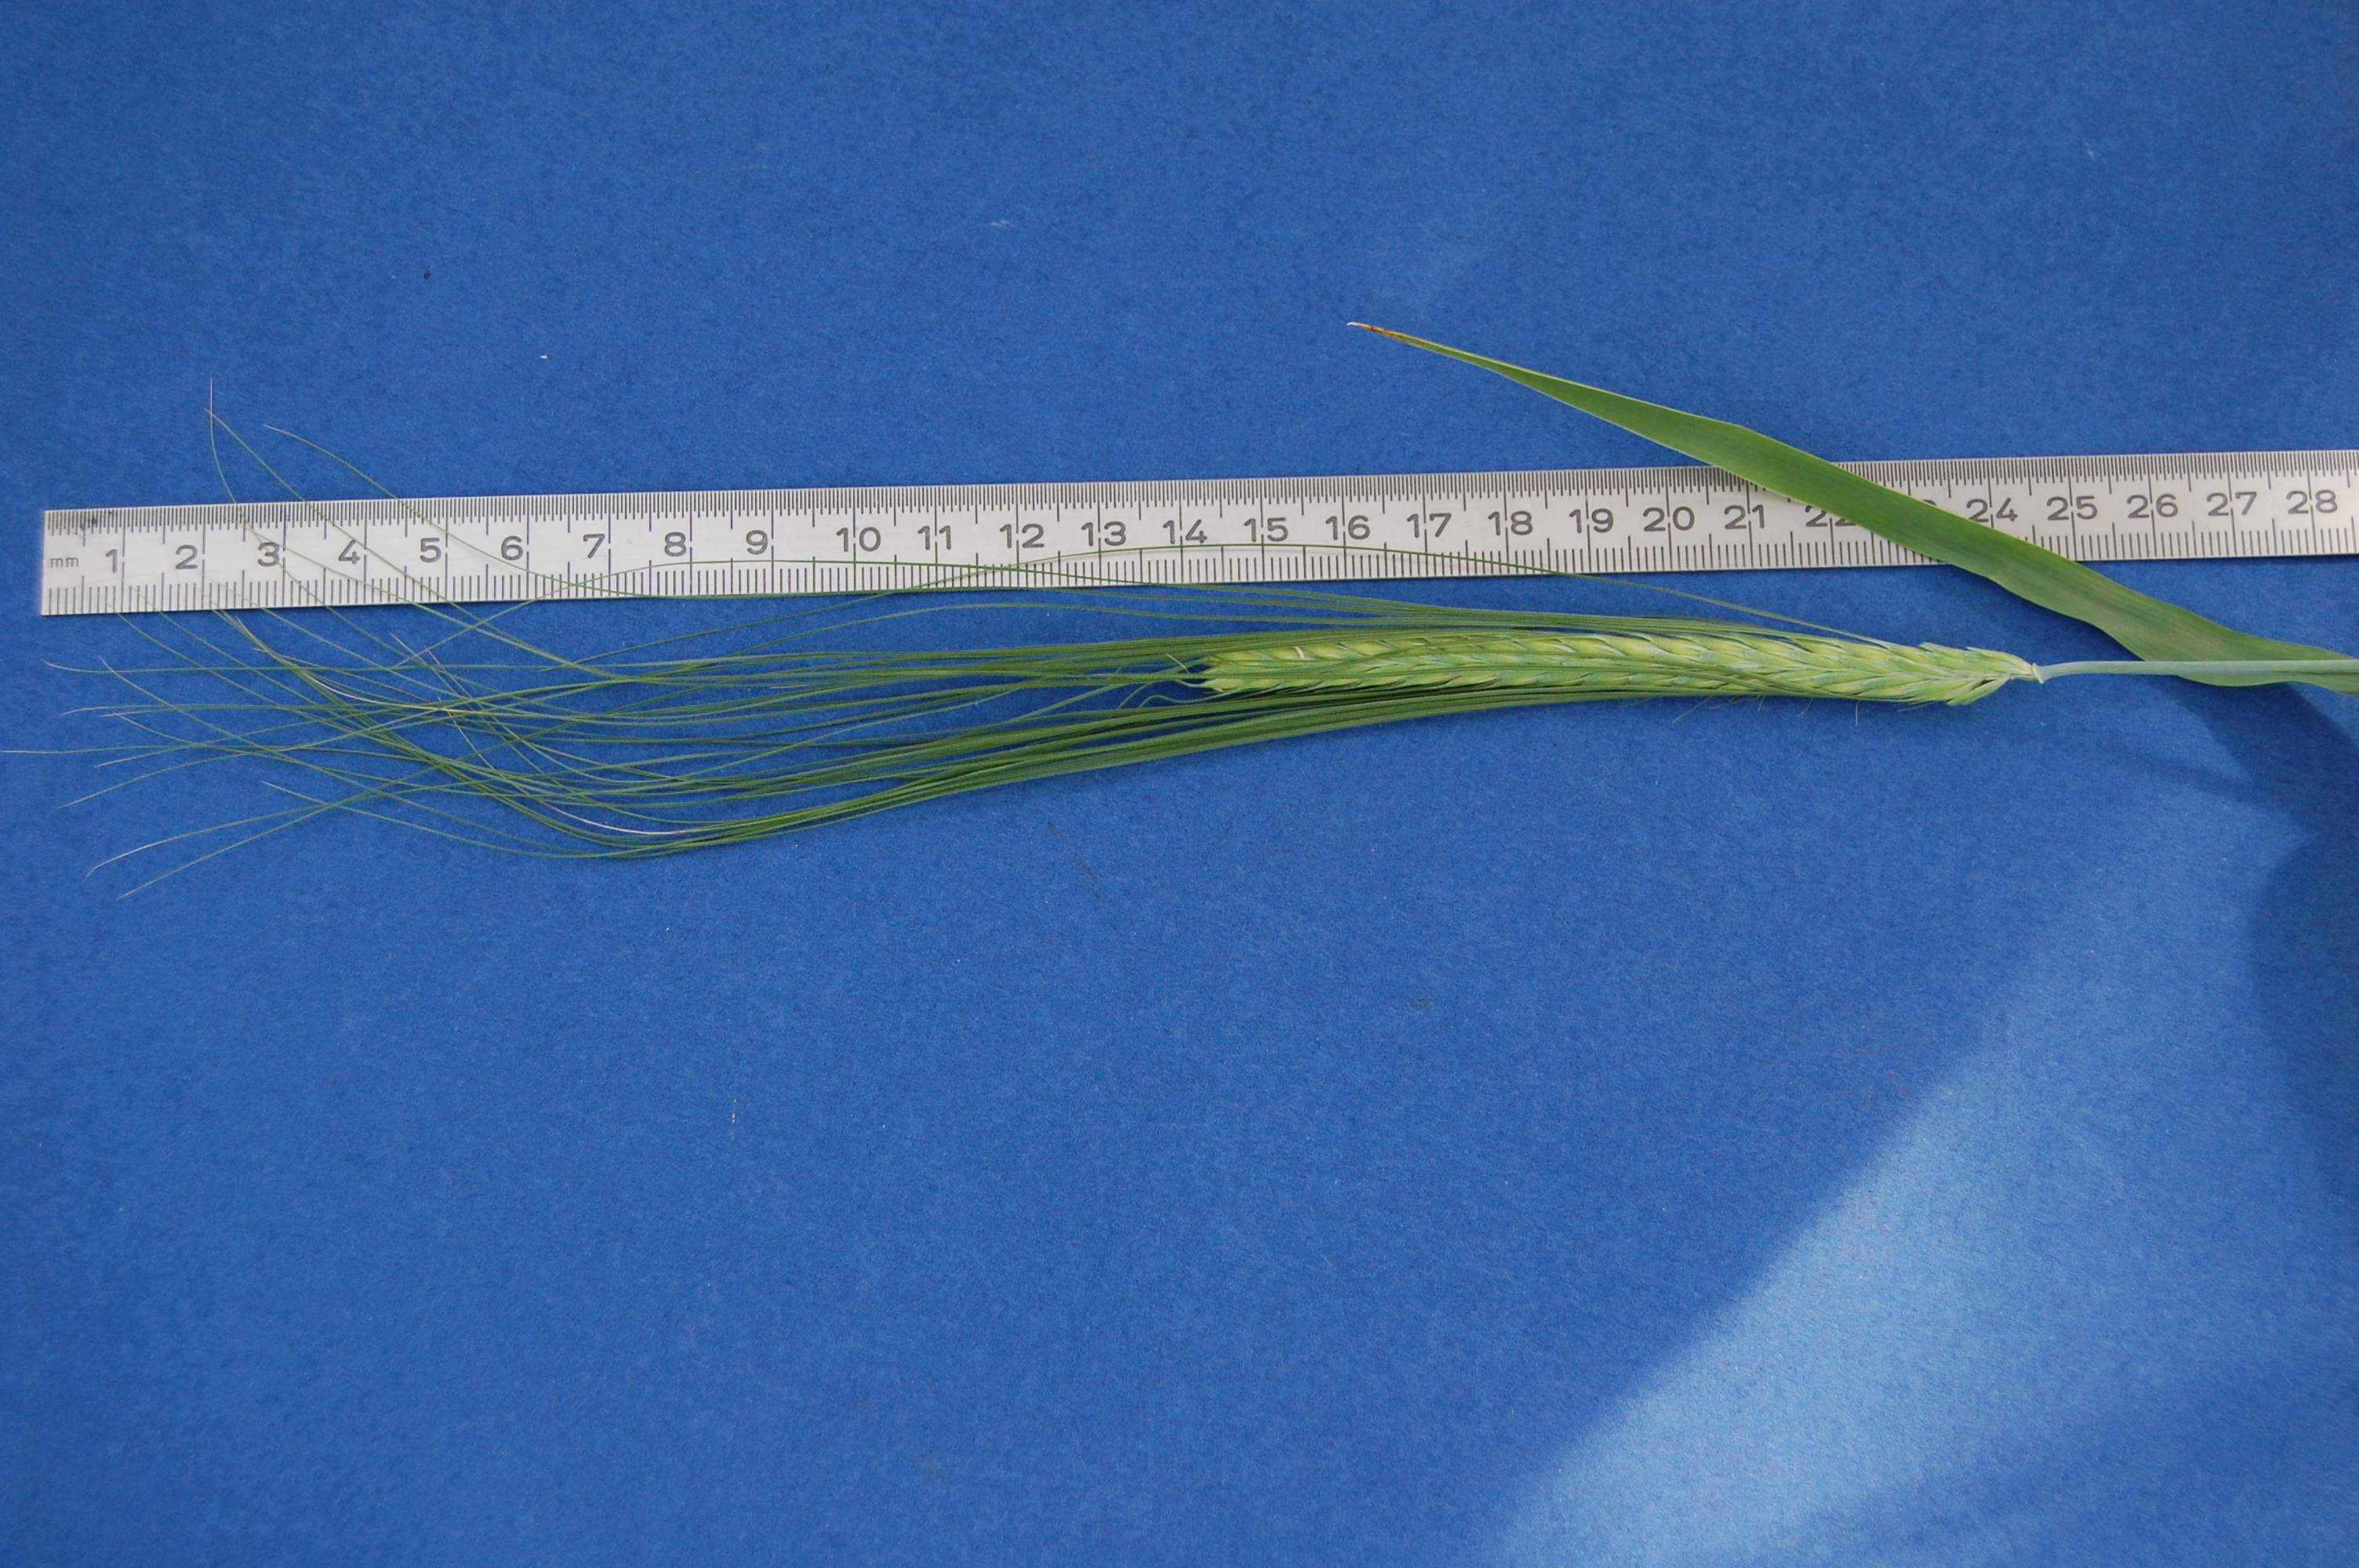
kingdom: Plantae
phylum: Tracheophyta
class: Liliopsida
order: Poales
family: Poaceae
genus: Hordeum
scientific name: Hordeum vulgare
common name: Common barley
